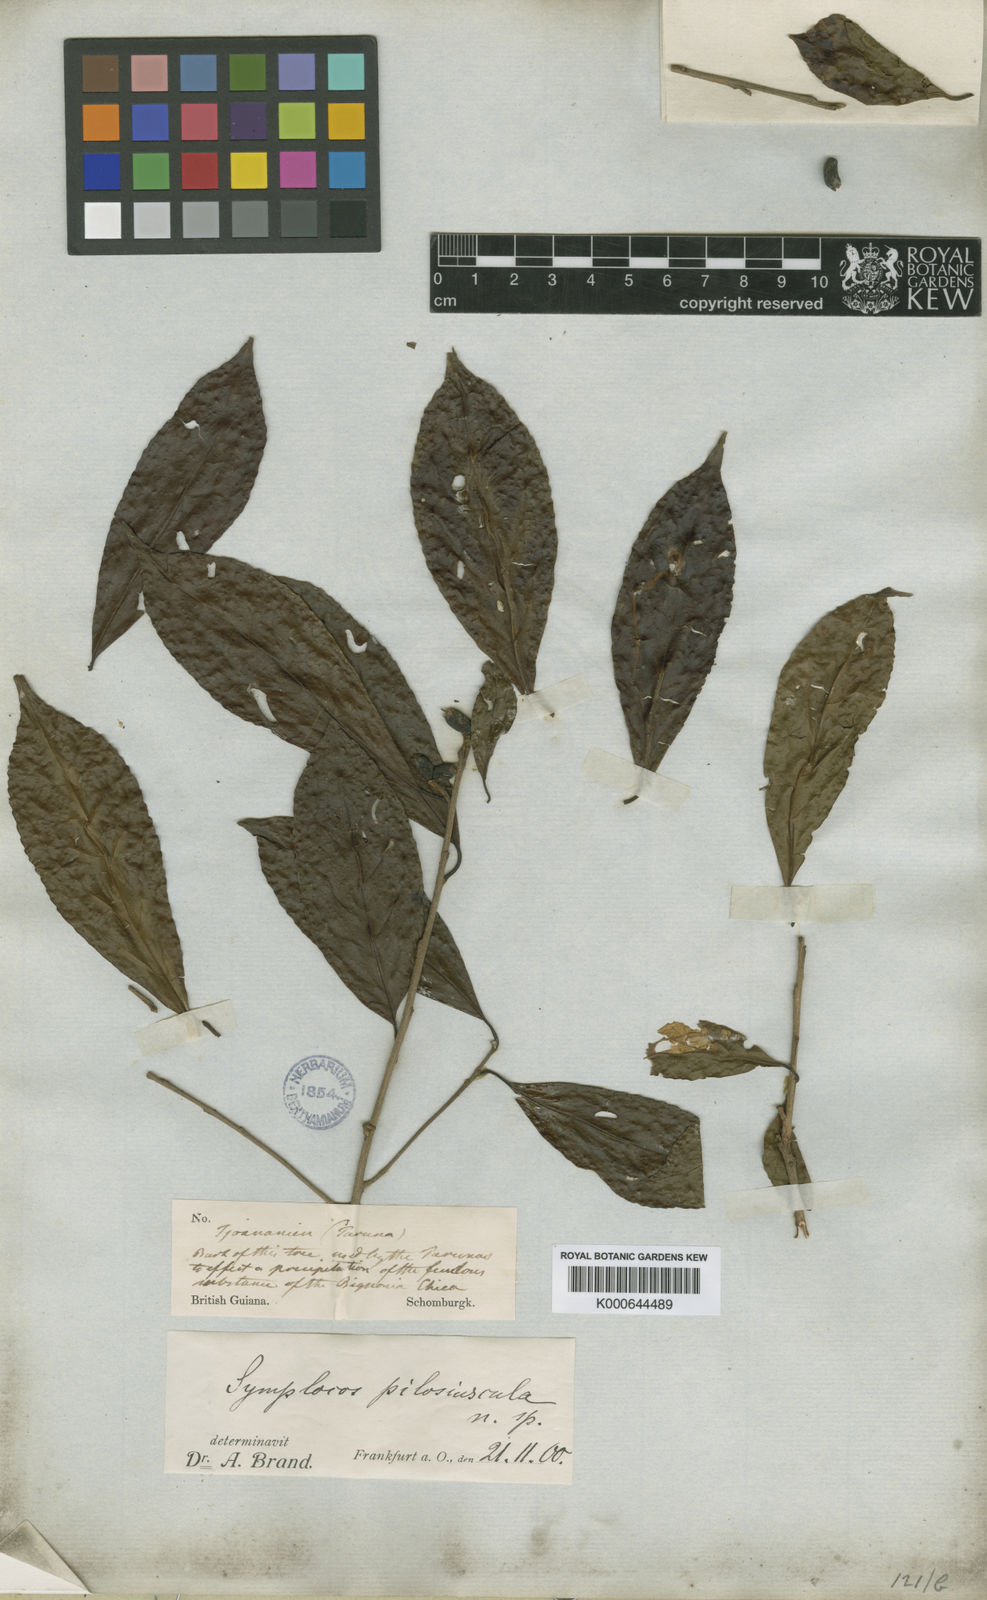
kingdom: Plantae
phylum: Tracheophyta
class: Magnoliopsida
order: Ericales
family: Symplocaceae
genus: Symplocos
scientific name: Symplocos pilosiuscula
